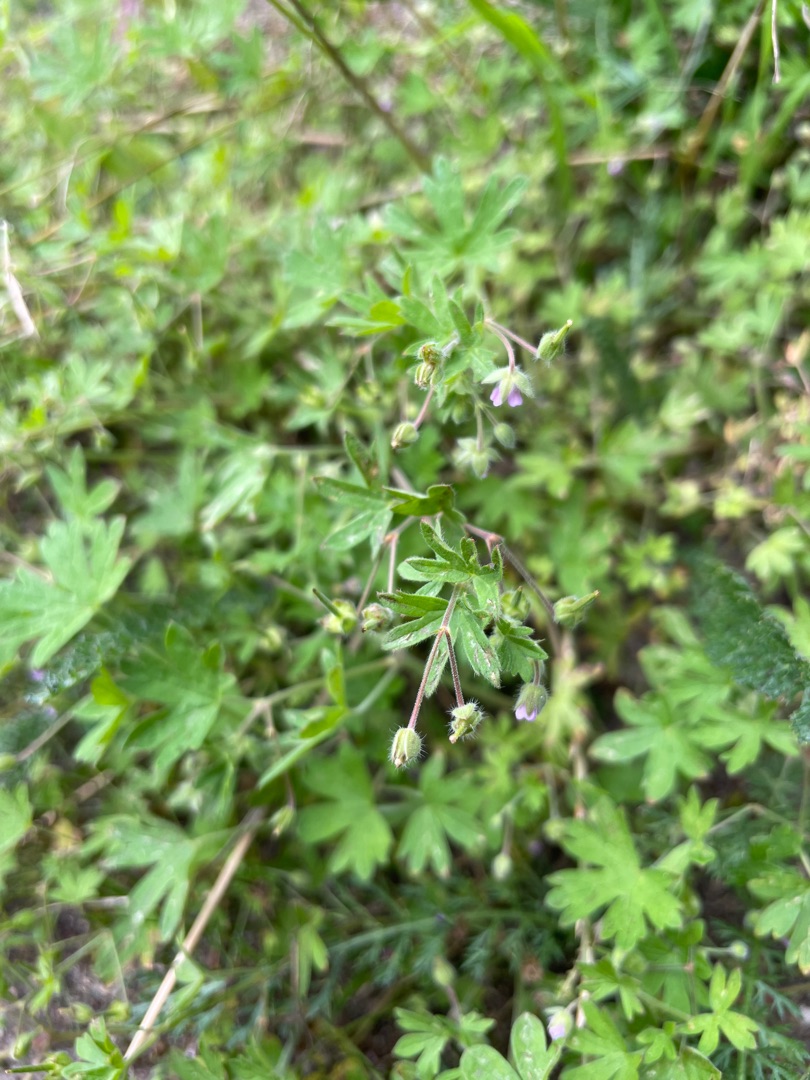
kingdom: Plantae
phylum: Tracheophyta
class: Magnoliopsida
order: Geraniales
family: Geraniaceae
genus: Geranium
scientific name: Geranium pusillum
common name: Liden storkenæb
